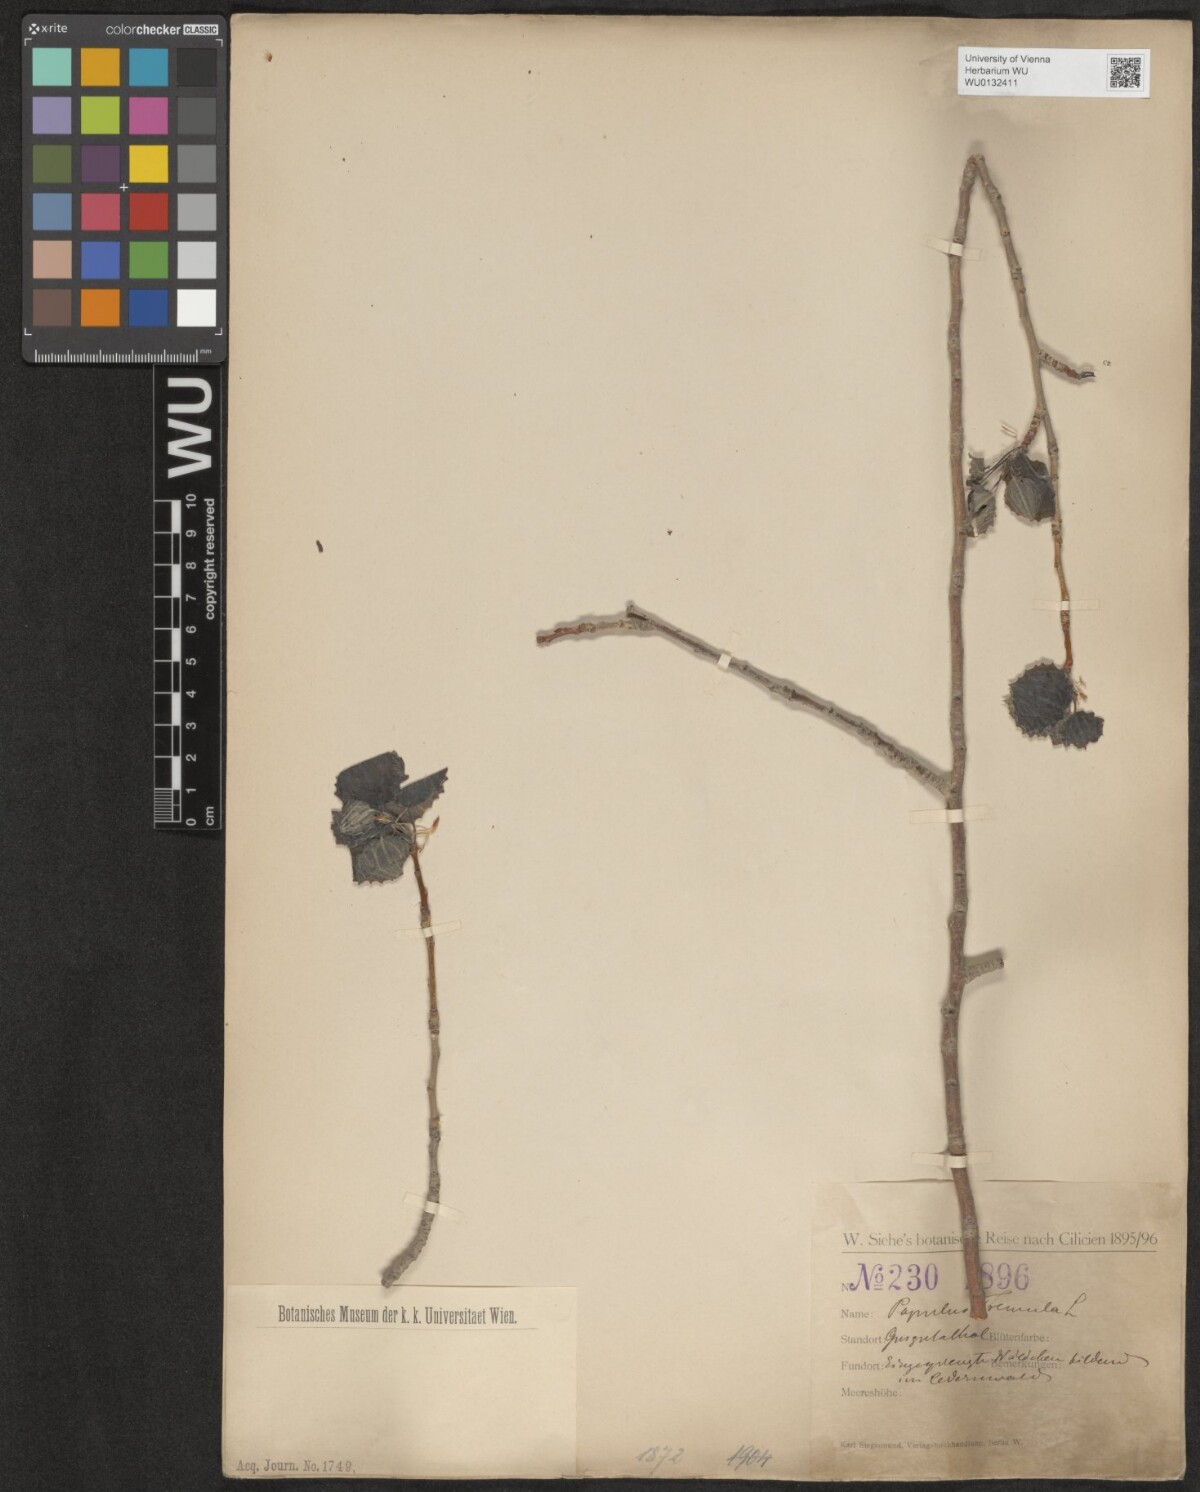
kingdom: Plantae
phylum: Tracheophyta
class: Magnoliopsida
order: Malpighiales
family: Salicaceae
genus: Populus
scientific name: Populus tremula
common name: European aspen
